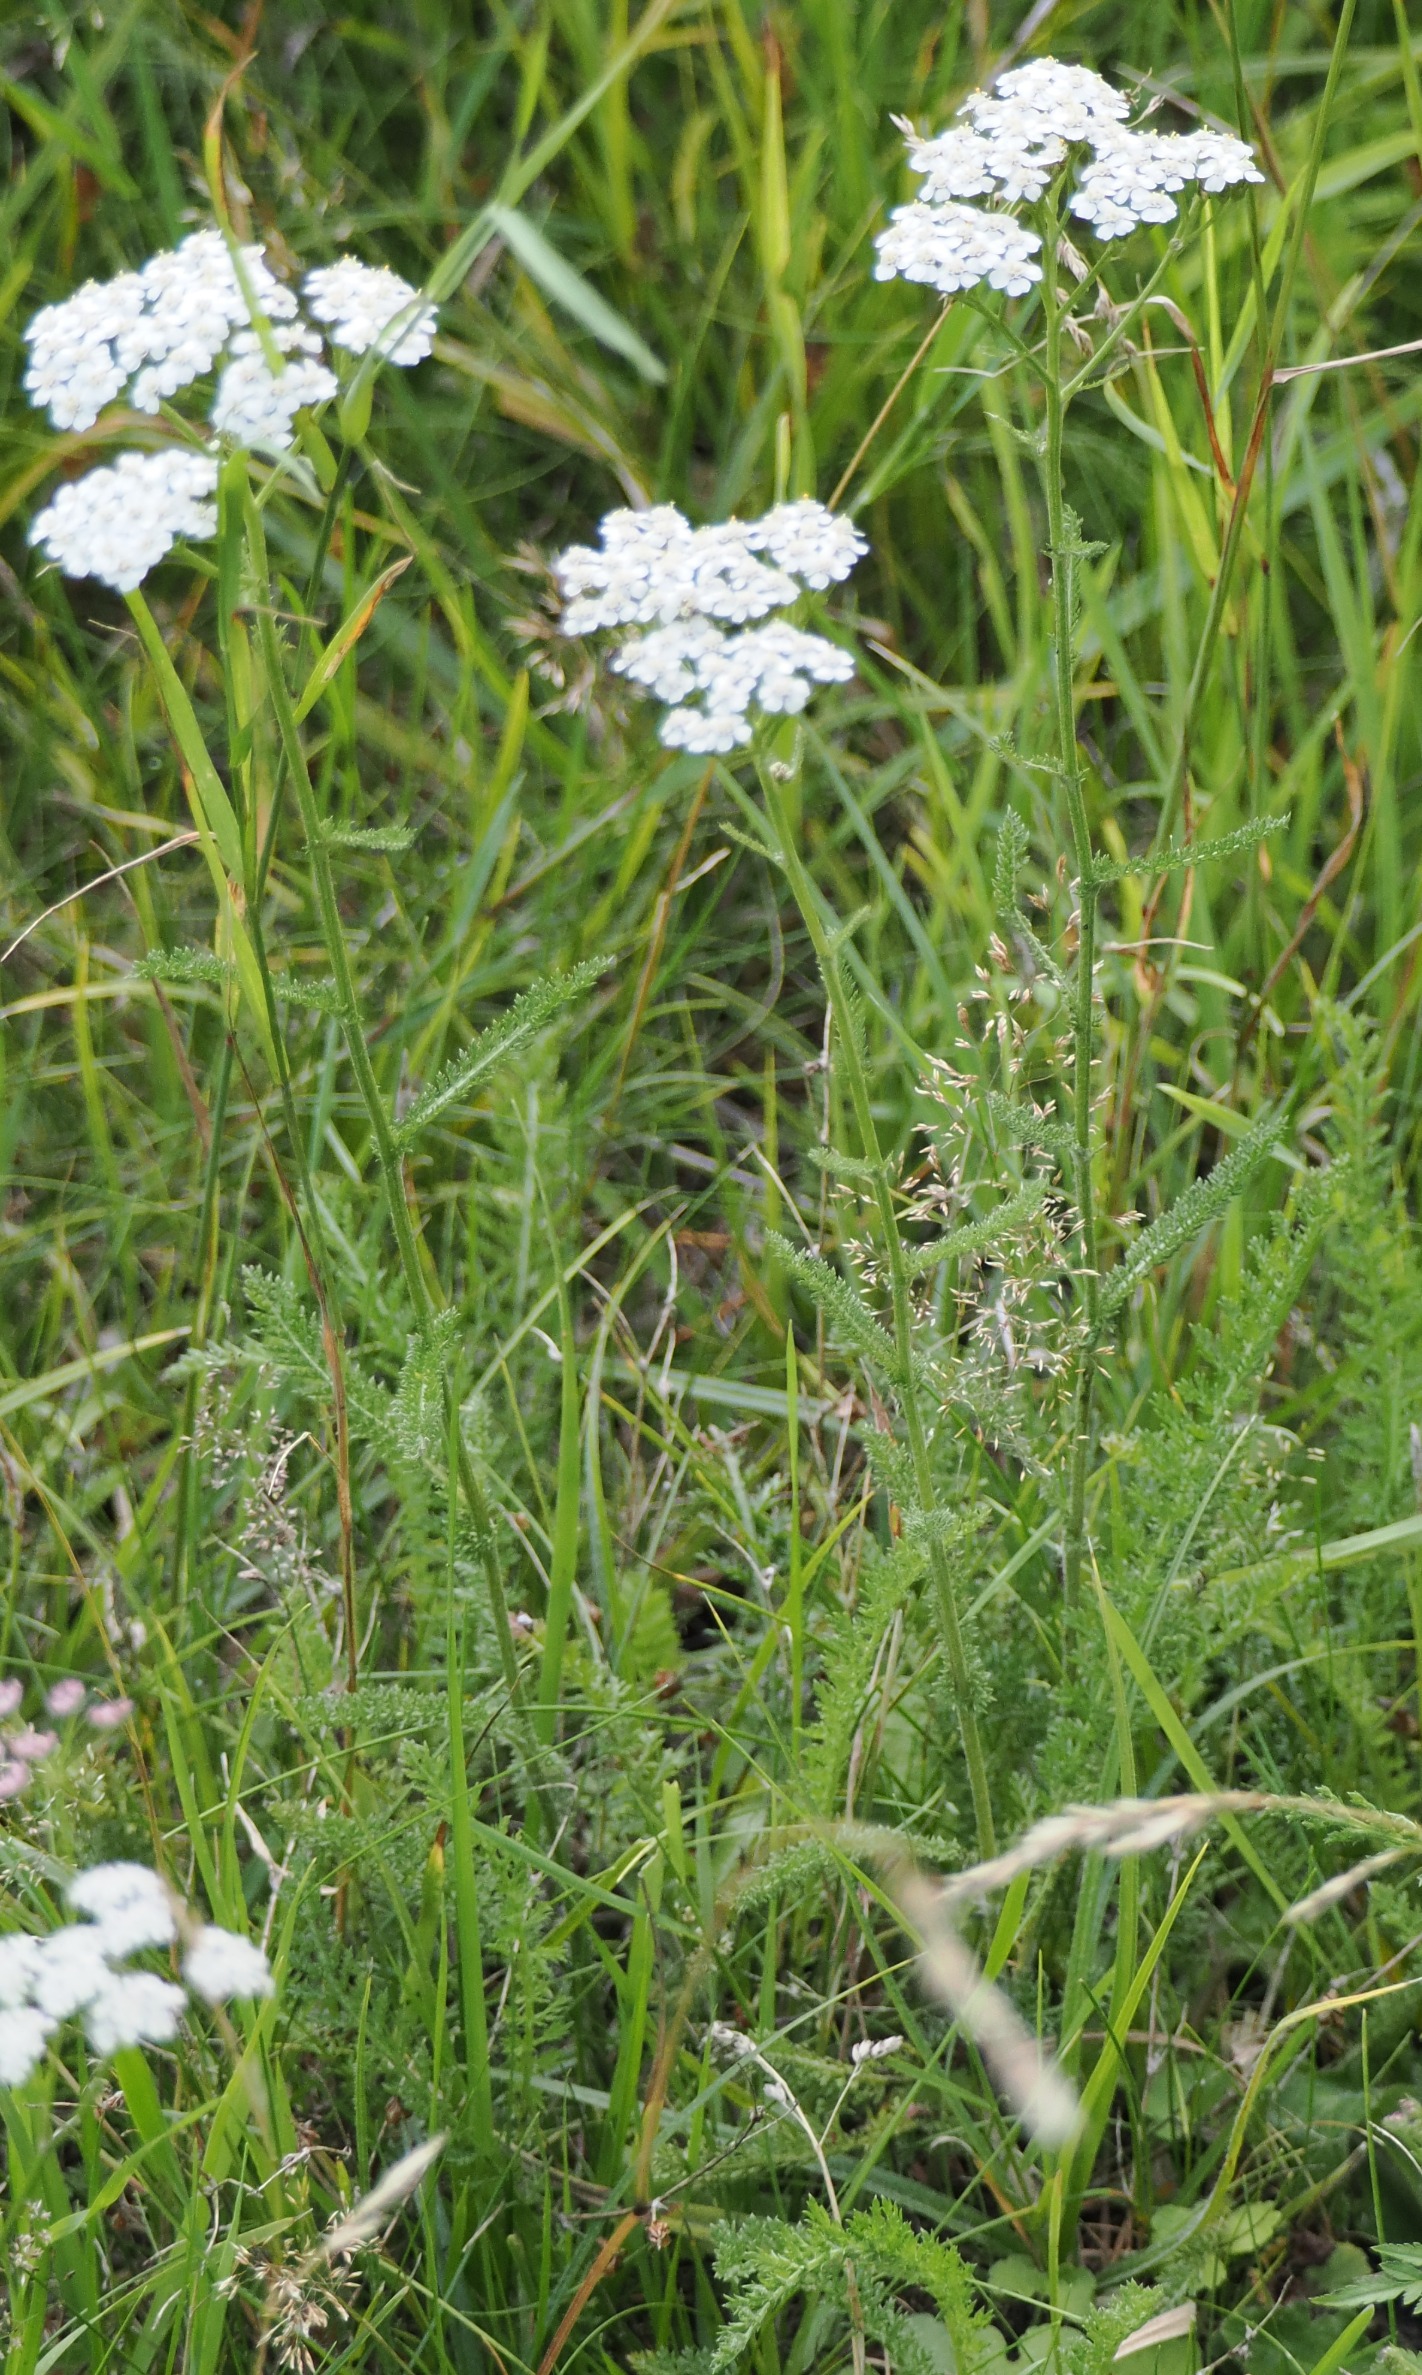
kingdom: Plantae
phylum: Tracheophyta
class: Magnoliopsida
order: Asterales
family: Asteraceae
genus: Achillea
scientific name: Achillea millefolium
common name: Almindelig røllike
